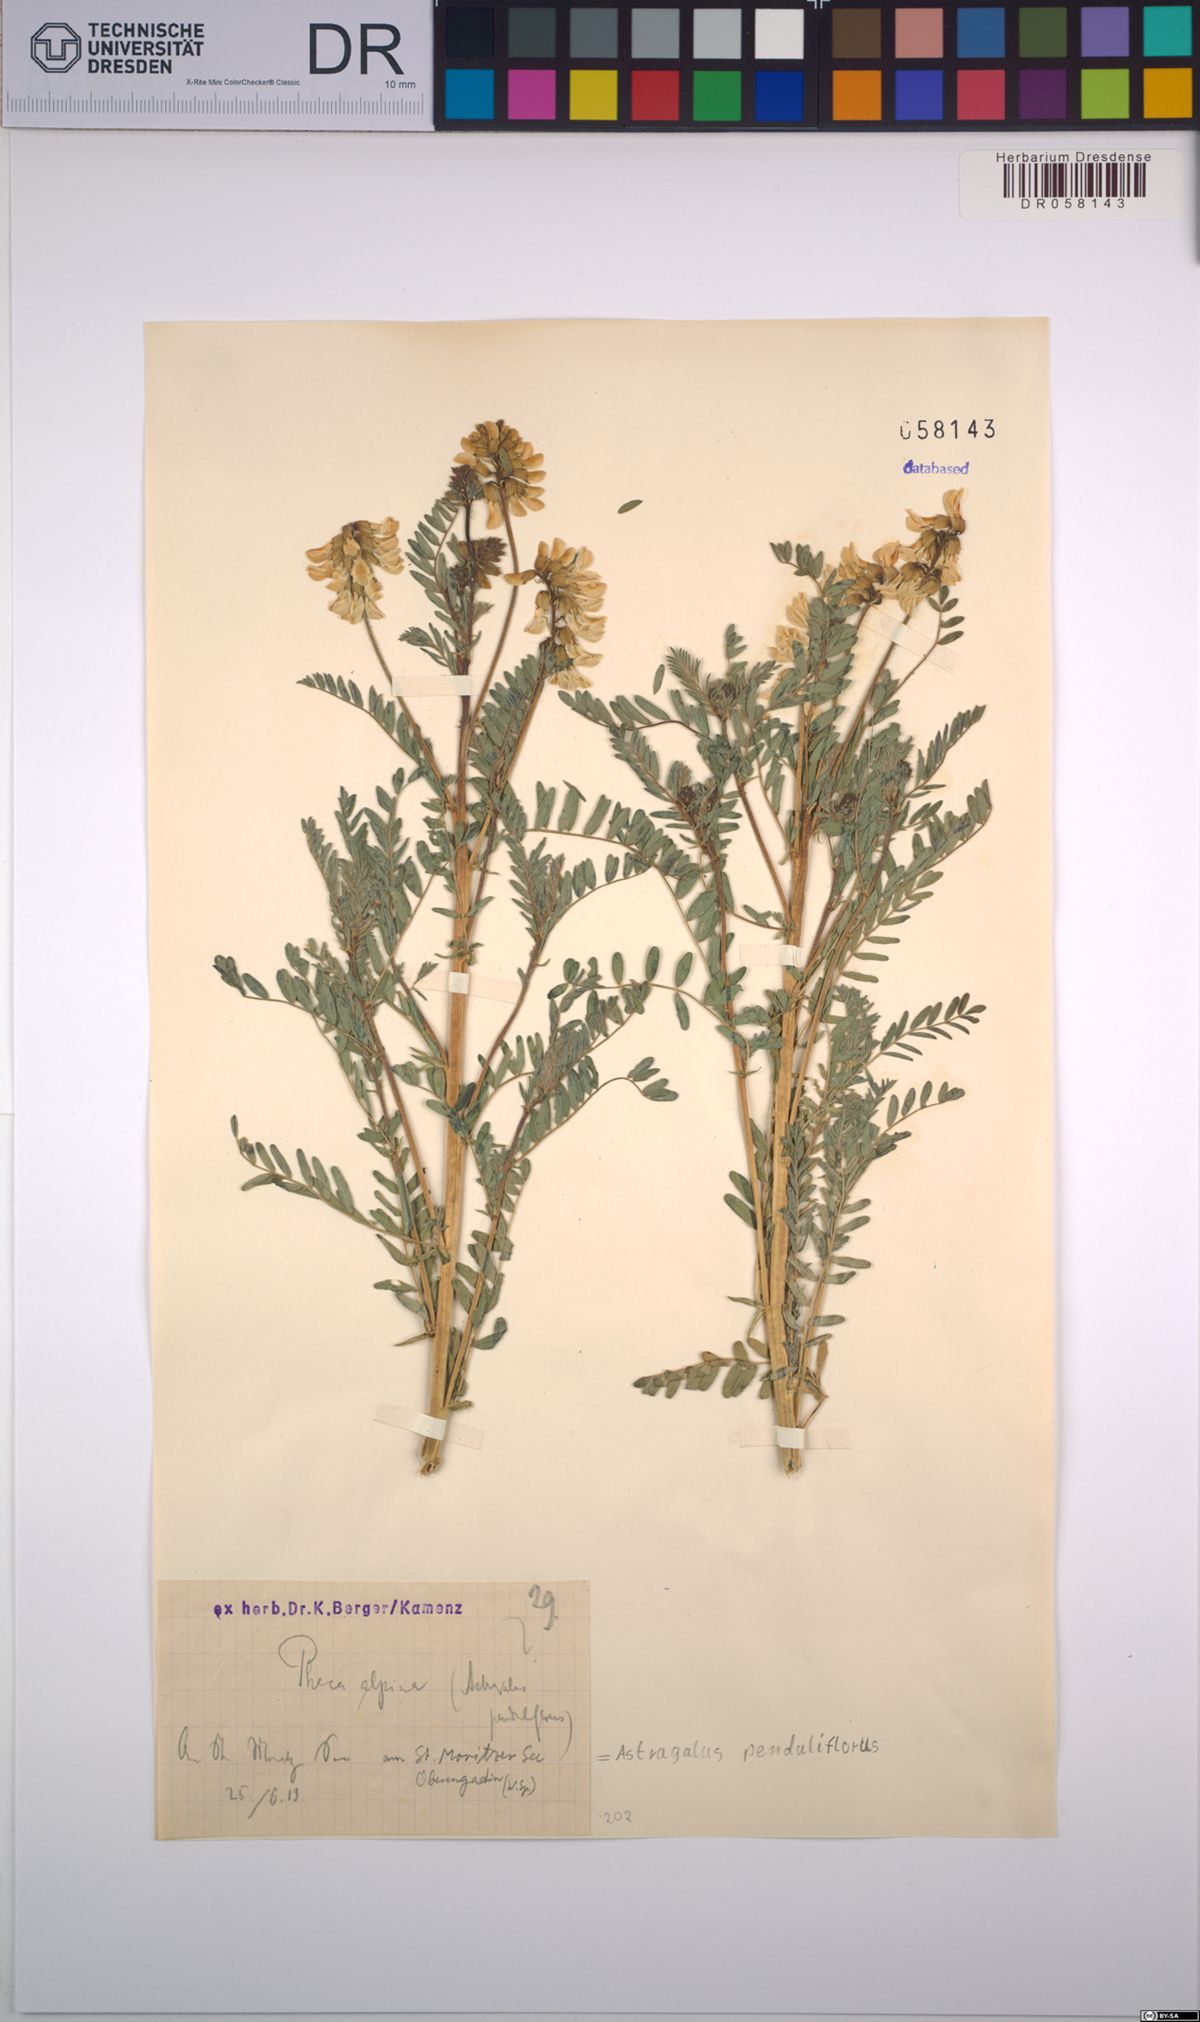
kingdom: Plantae
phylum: Tracheophyta
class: Magnoliopsida
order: Fabales
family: Fabaceae
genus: Astragalus
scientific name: Astragalus penduliflorus
